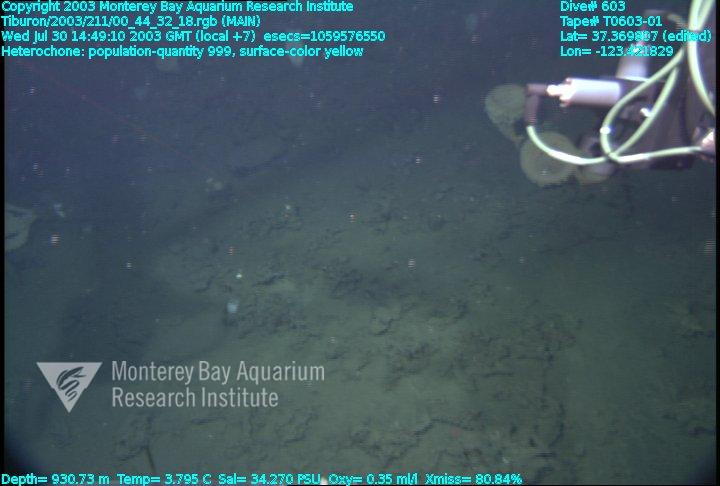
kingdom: Animalia
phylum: Porifera
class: Hexactinellida
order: Sceptrulophora
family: Aphrocallistidae
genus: Heterochone
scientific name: Heterochone
